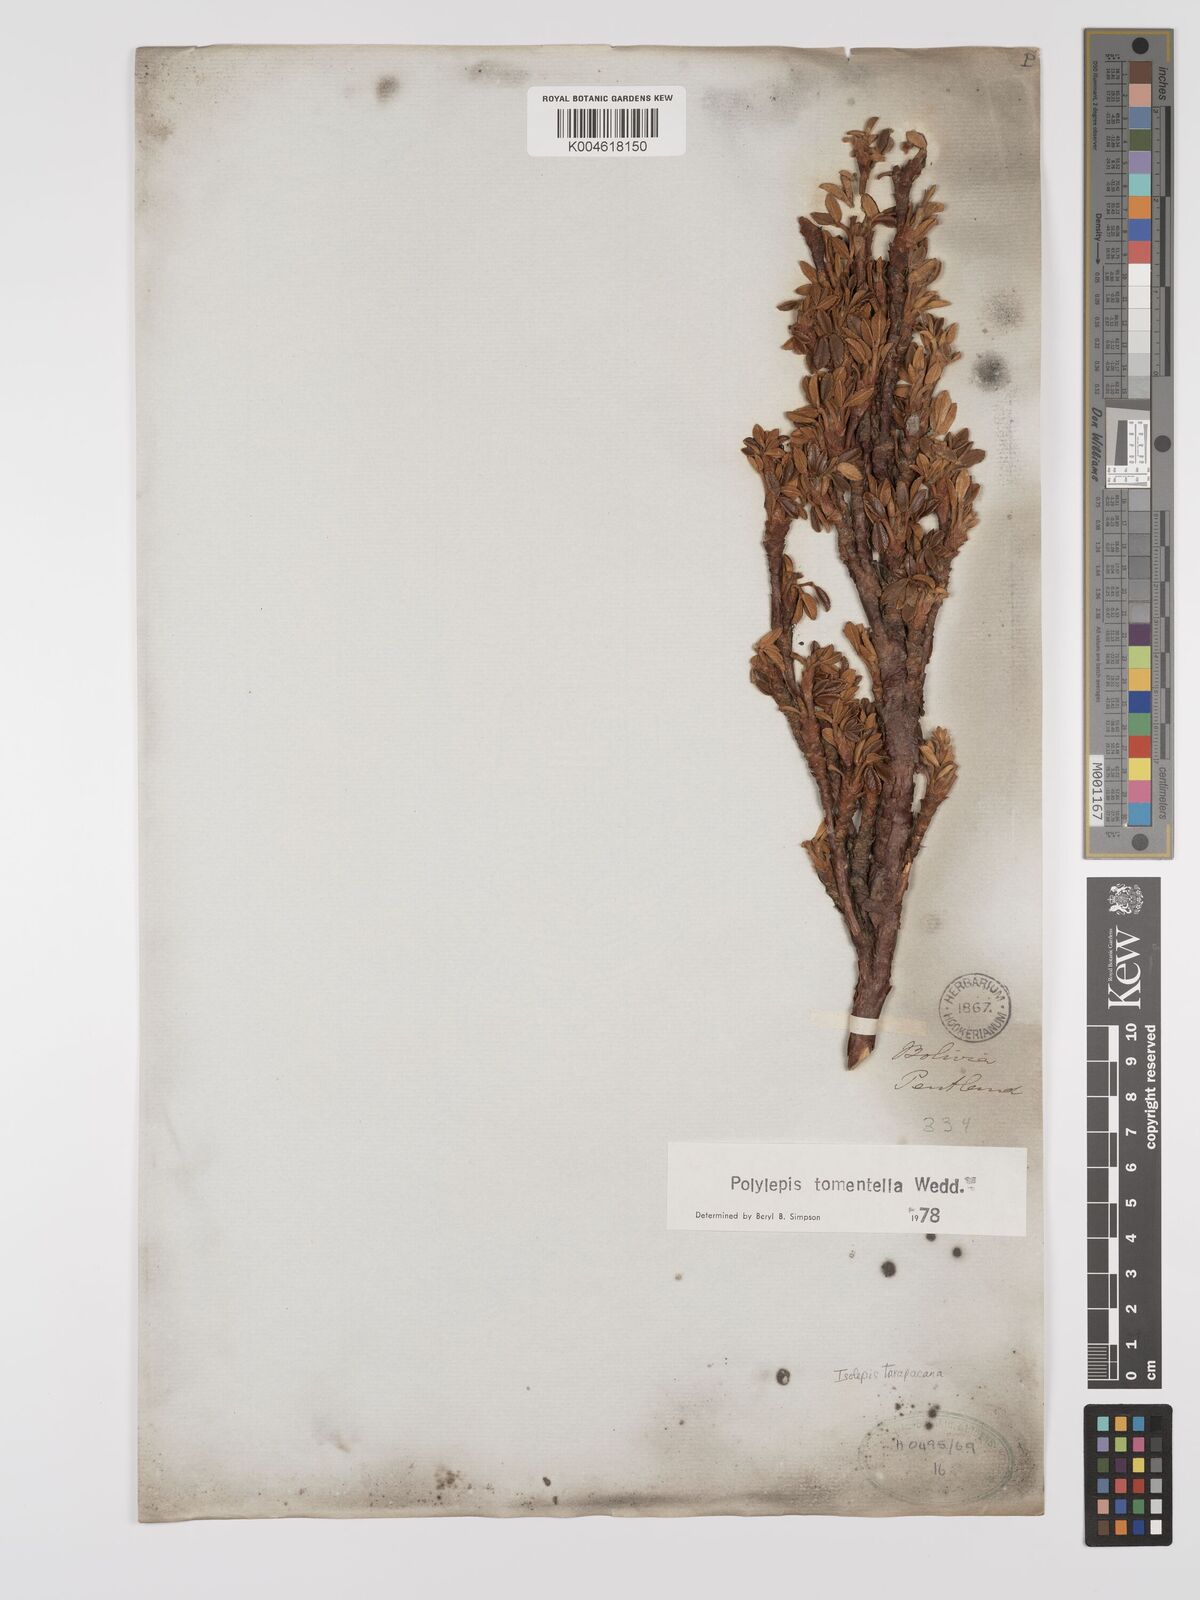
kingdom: Plantae
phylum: Tracheophyta
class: Magnoliopsida
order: Rosales
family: Rosaceae
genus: Polylepis
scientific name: Polylepis tomentella
